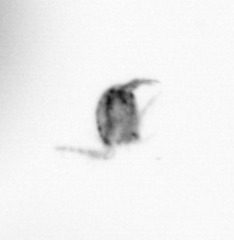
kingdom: Animalia
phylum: Arthropoda
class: Copepoda
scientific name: Copepoda
